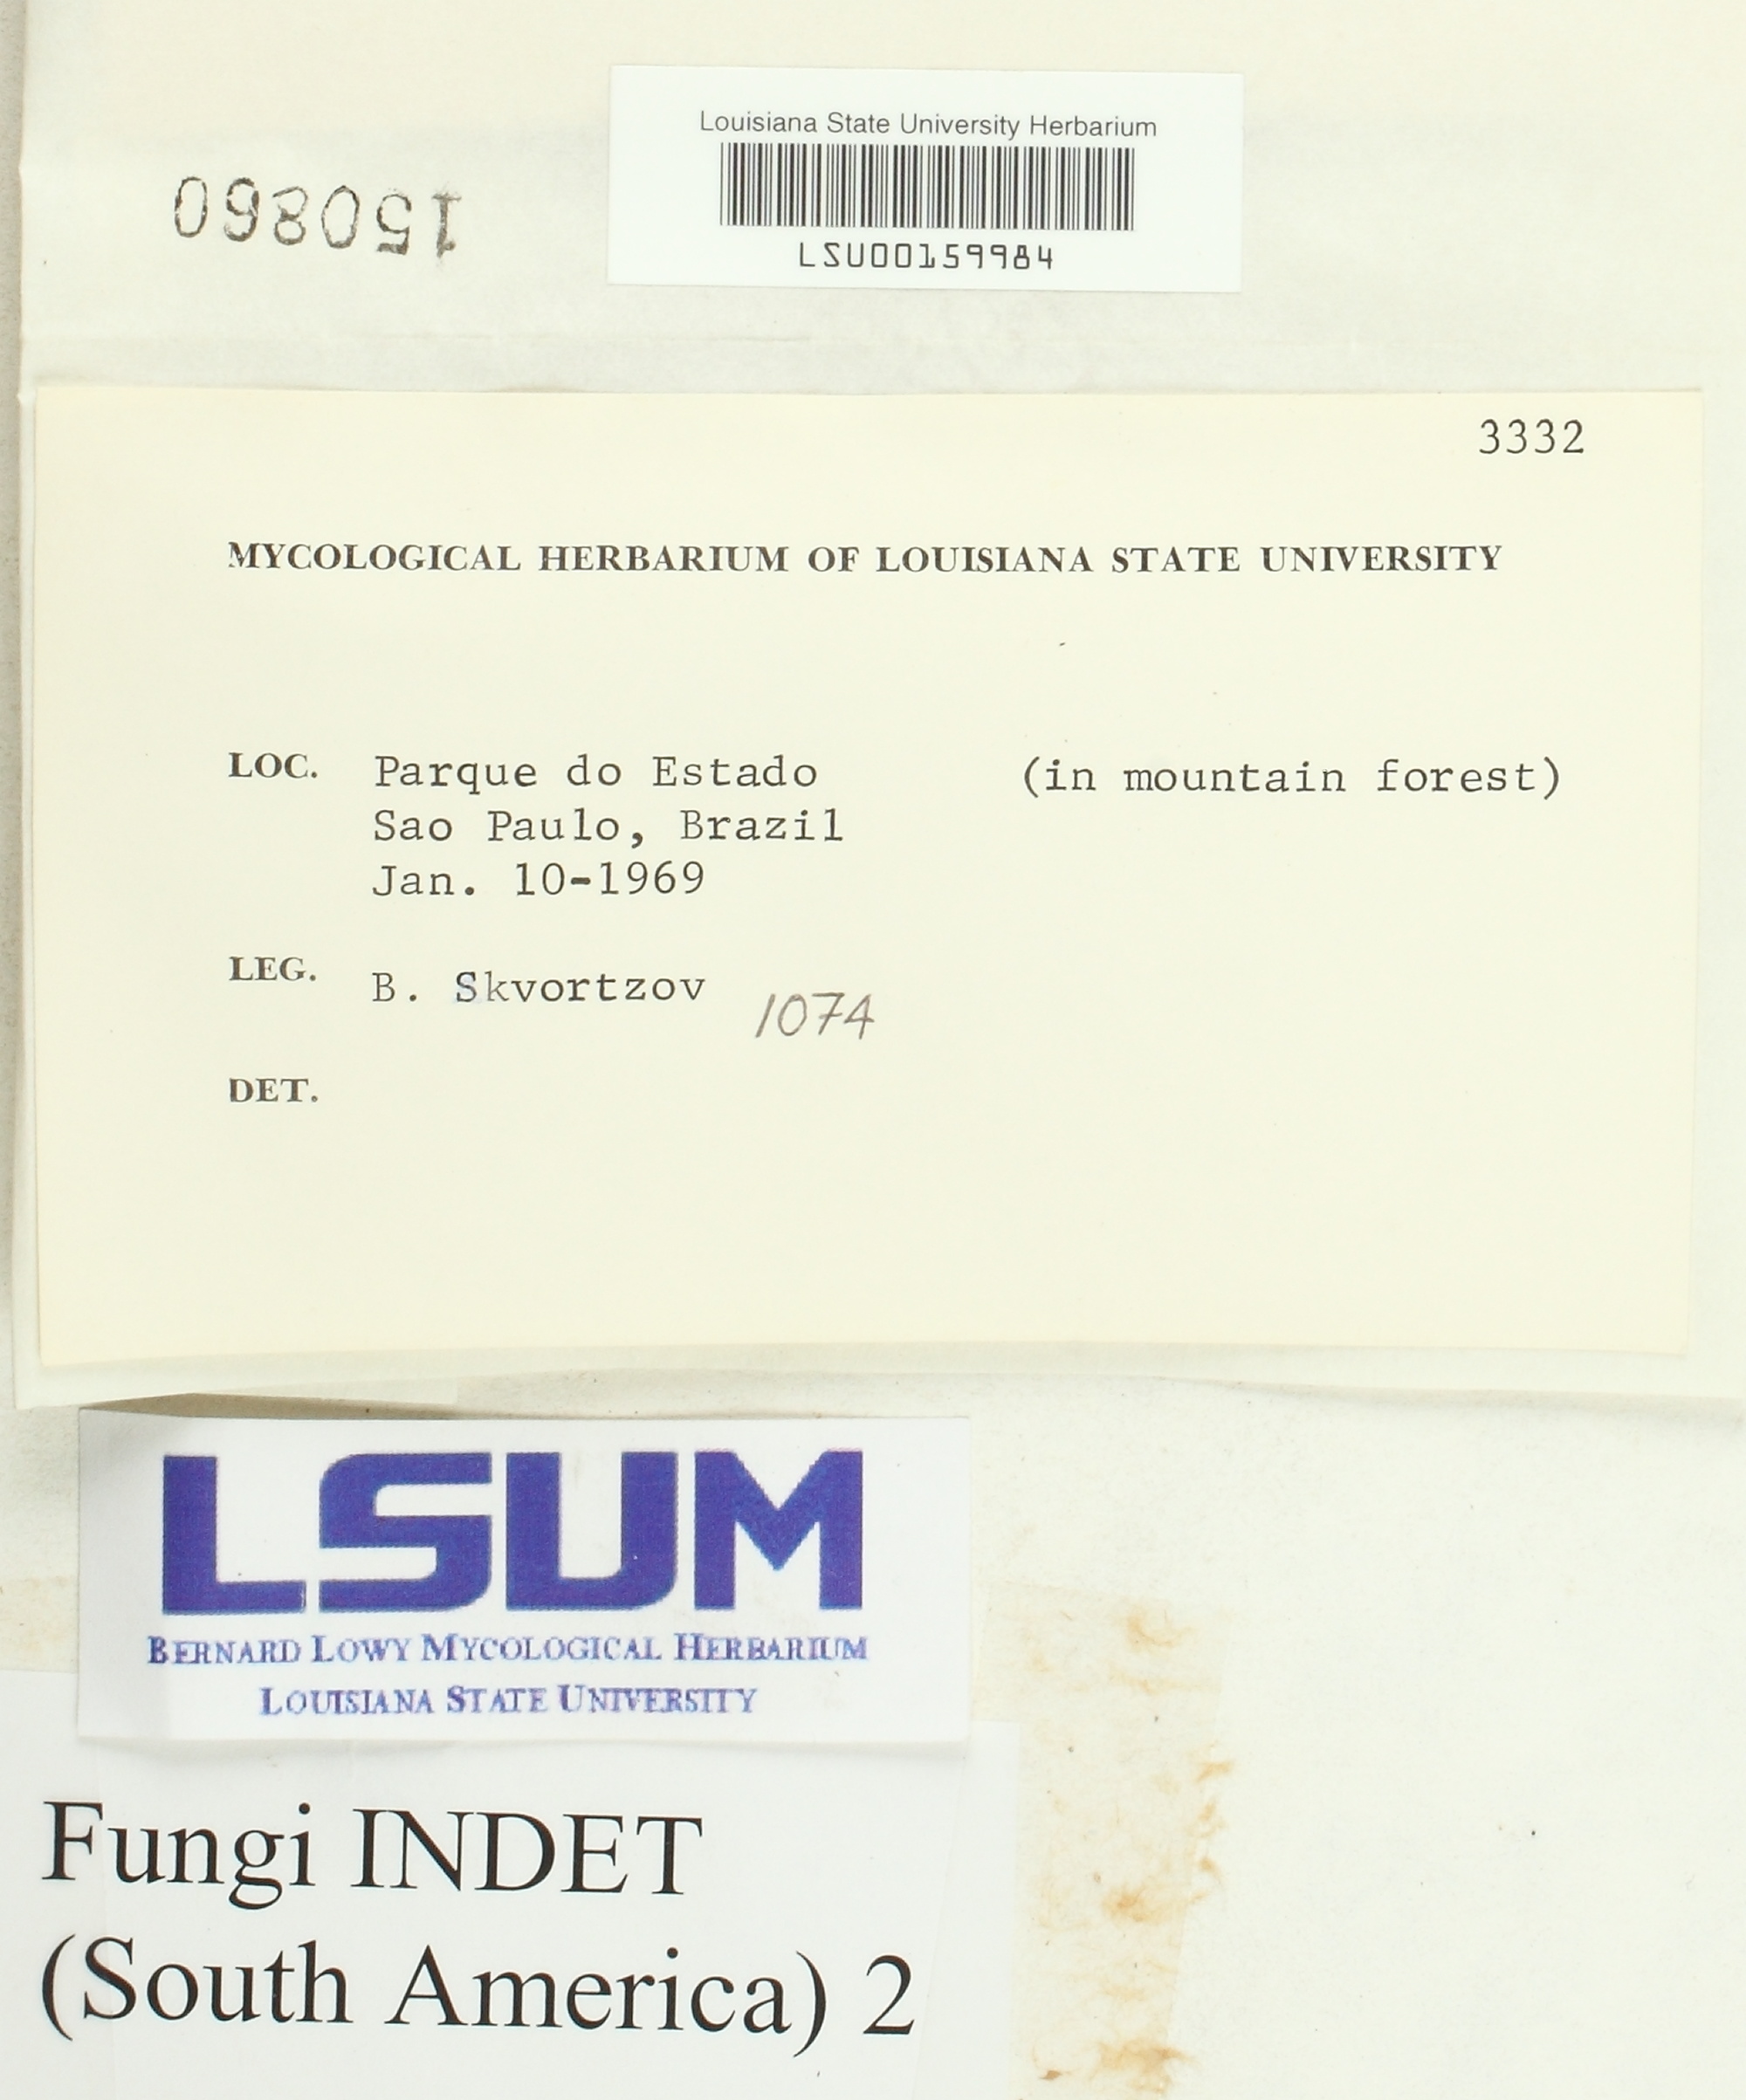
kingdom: Fungi
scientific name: Fungi
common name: Fungi
